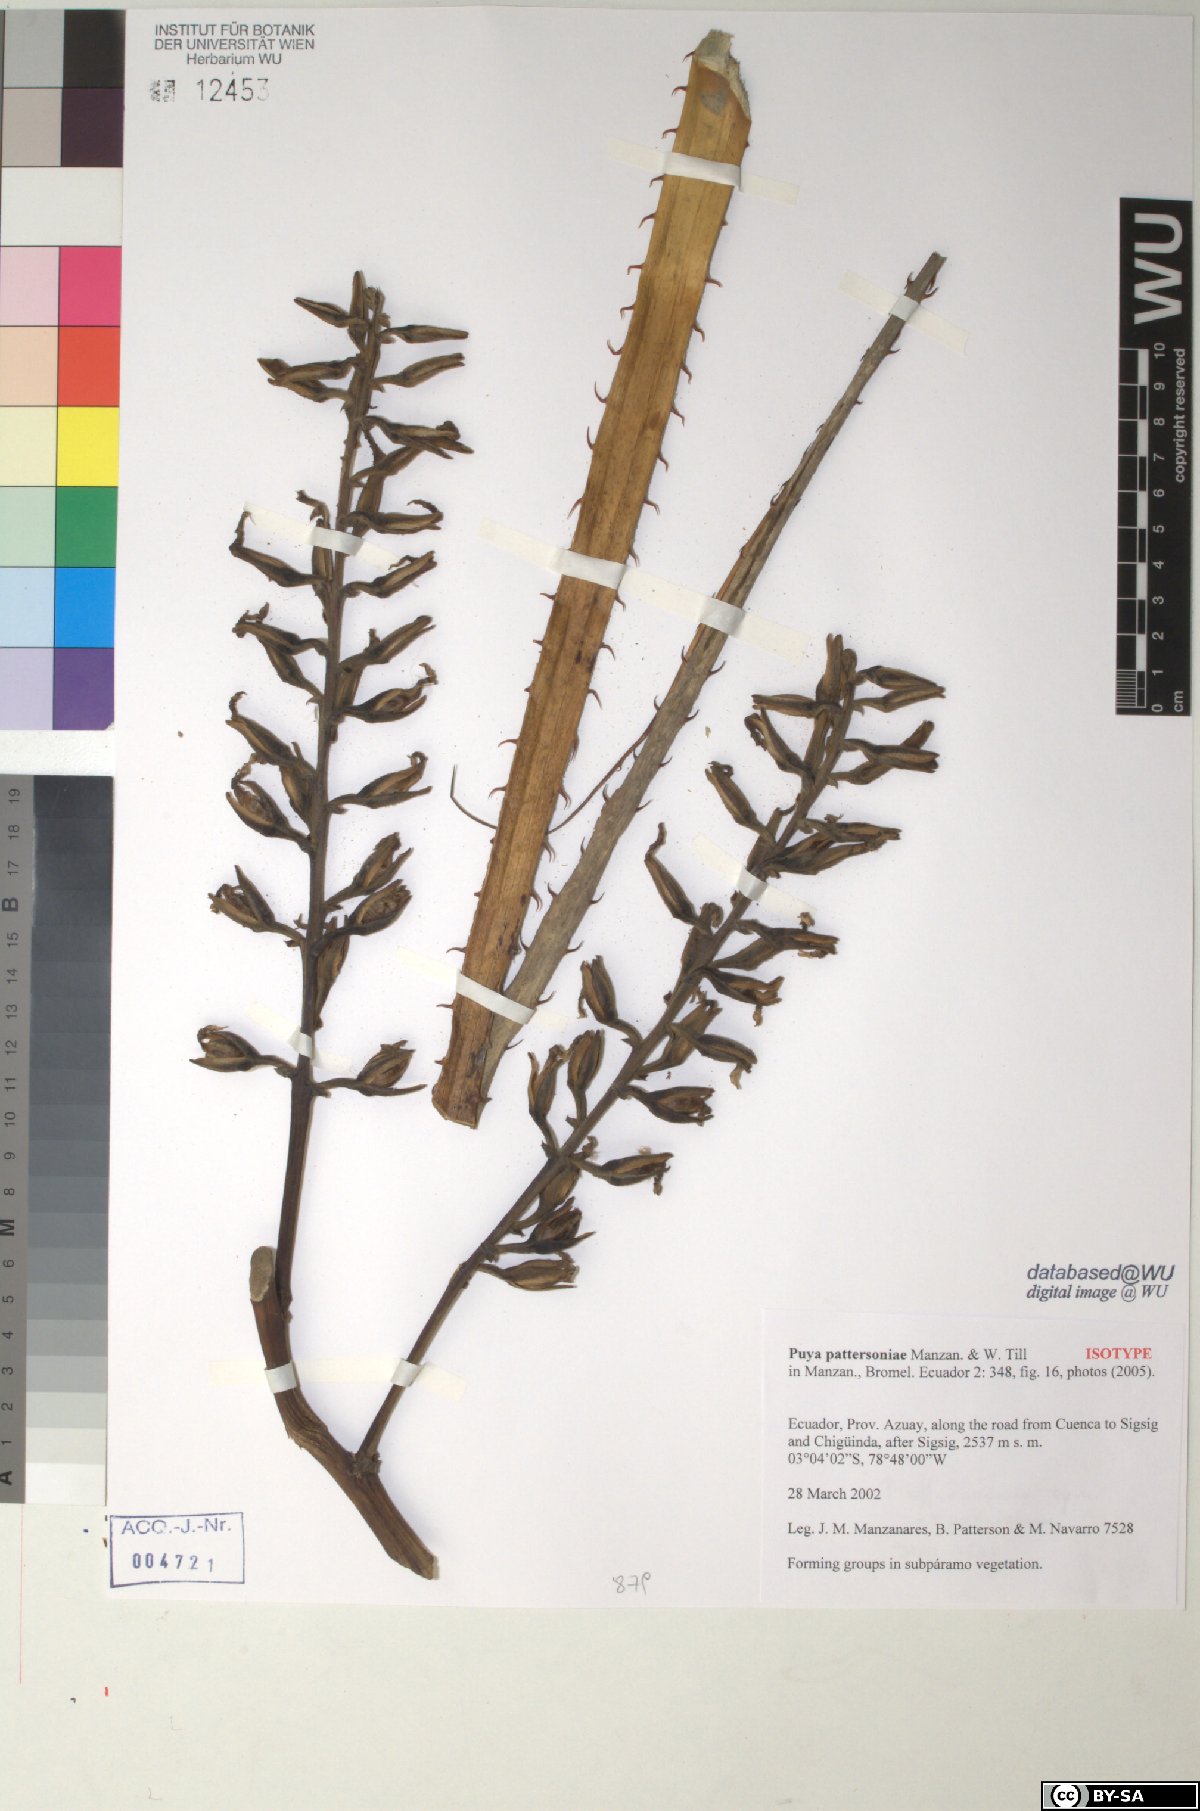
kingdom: Plantae
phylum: Tracheophyta
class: Liliopsida
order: Poales
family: Bromeliaceae
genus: Puya
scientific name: Puya pattersoniae
